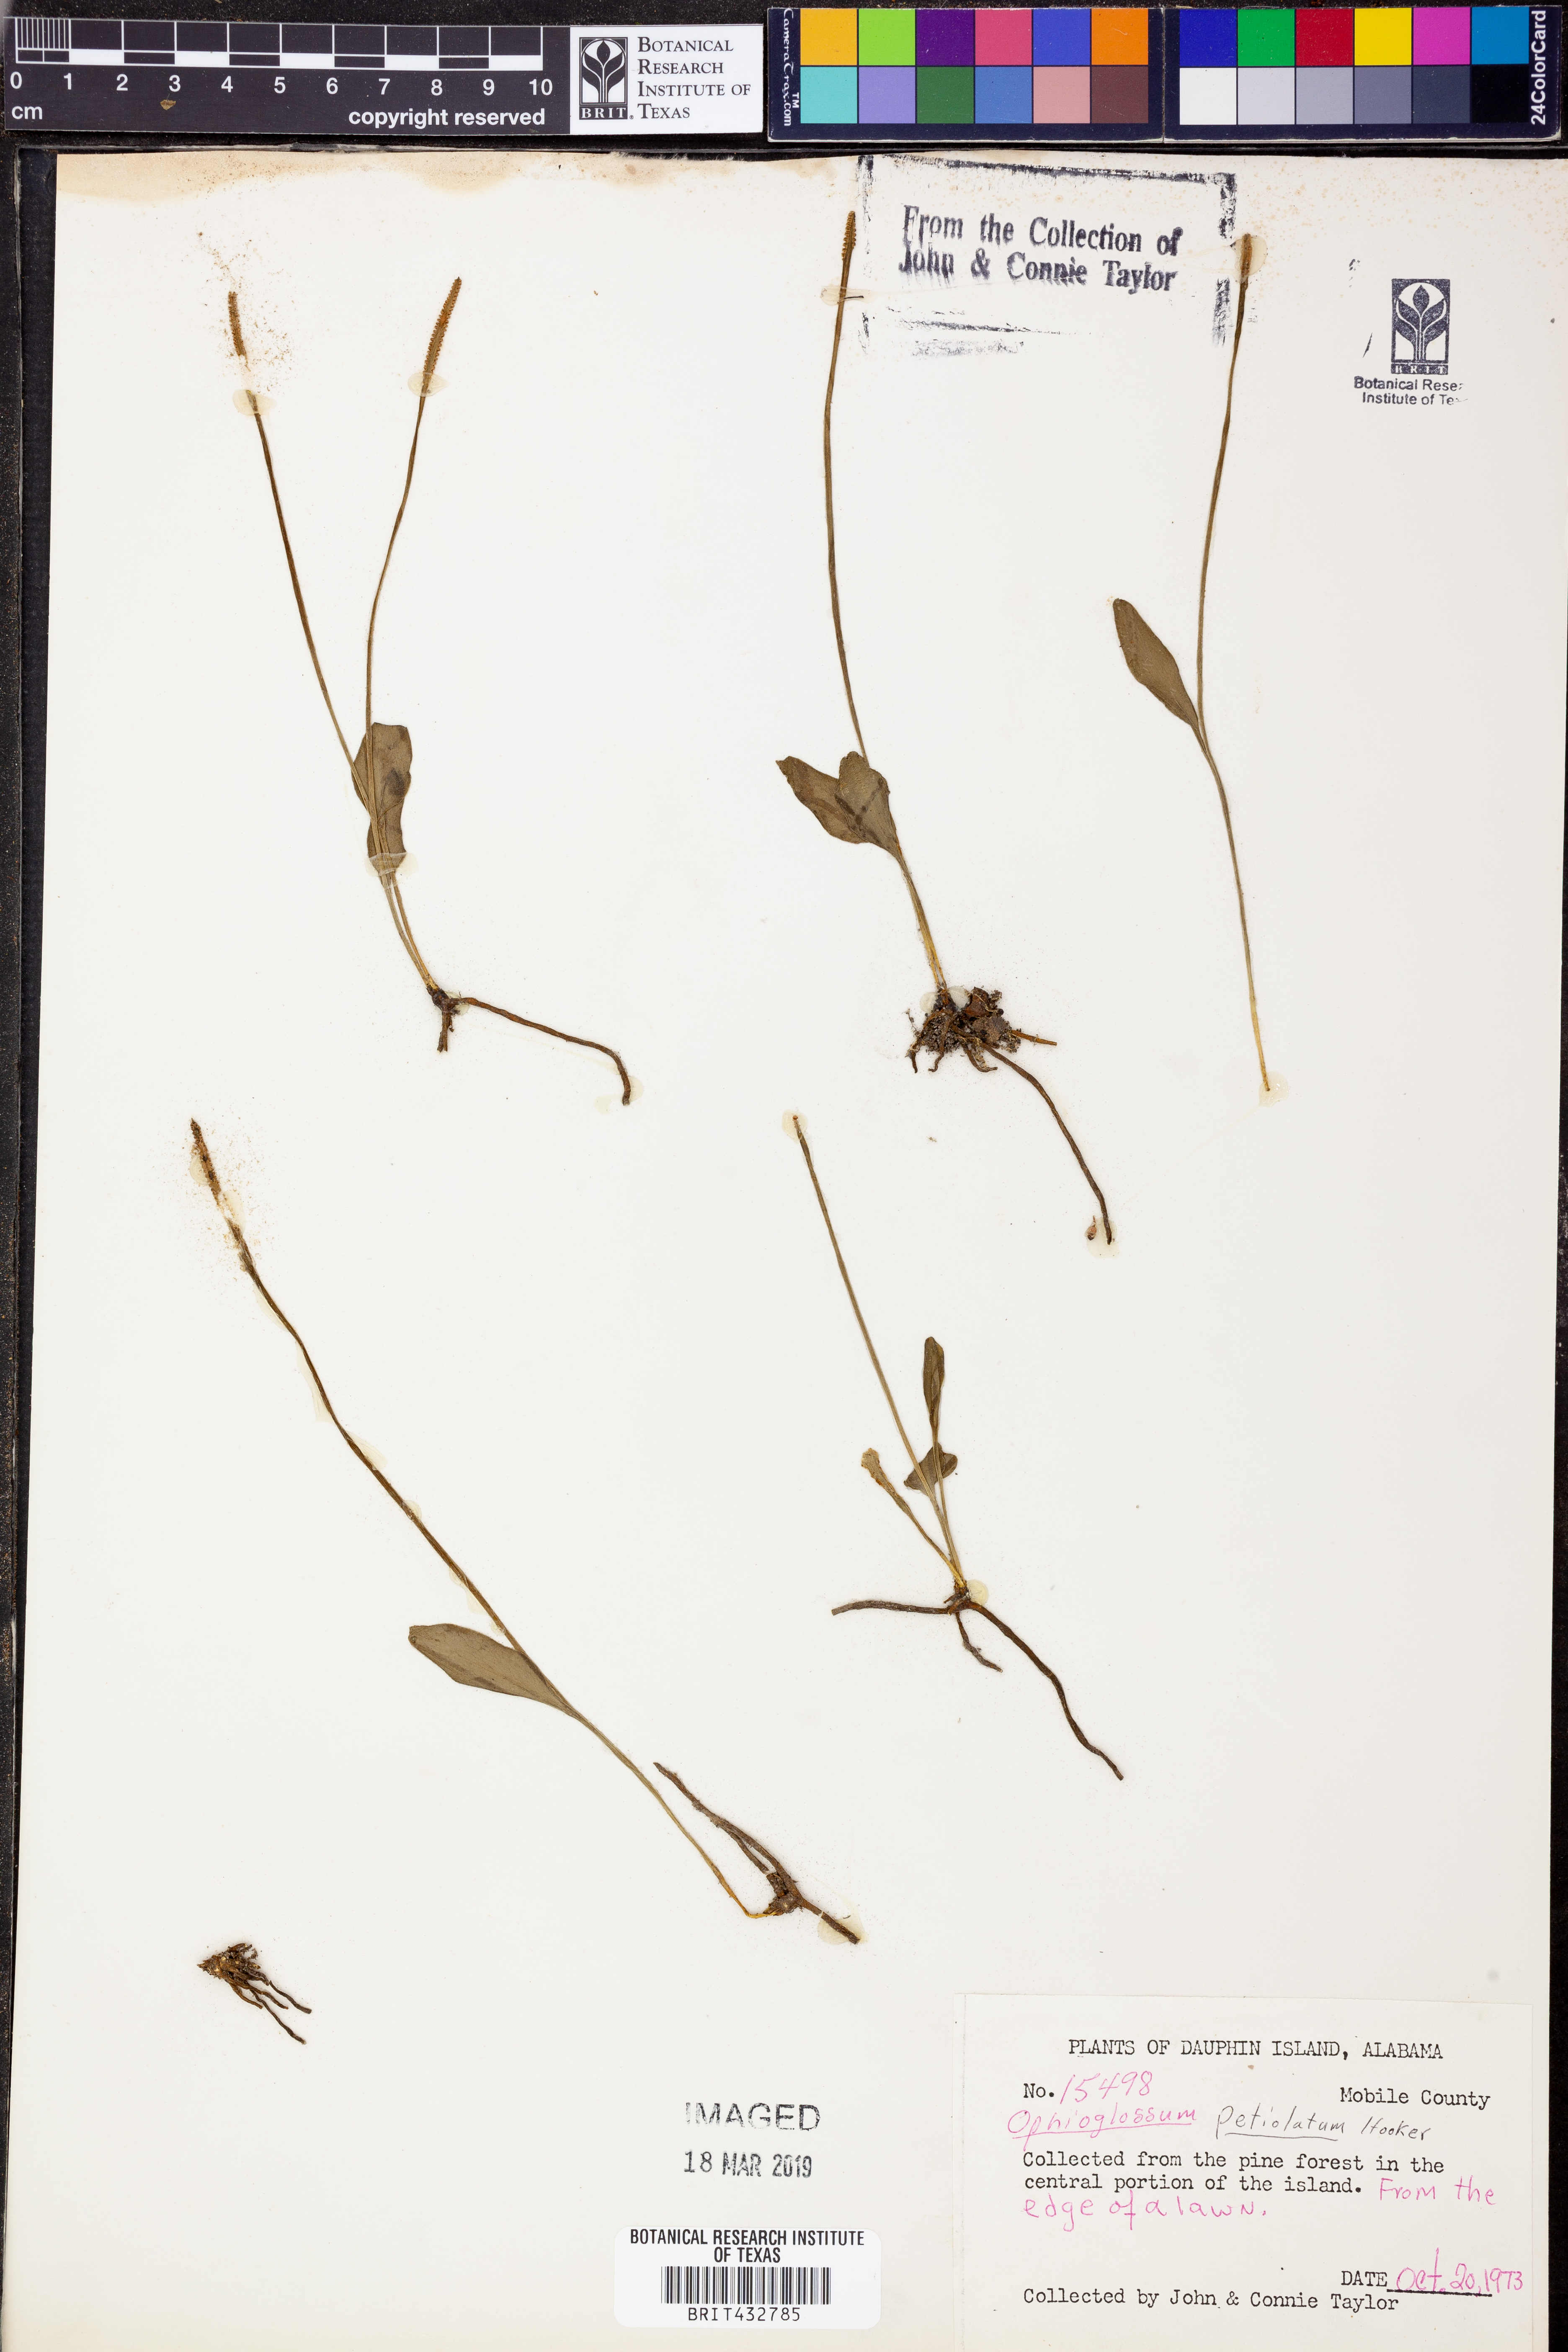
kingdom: Plantae
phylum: Tracheophyta
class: Polypodiopsida
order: Ophioglossales
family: Ophioglossaceae
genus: Ophioglossum
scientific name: Ophioglossum petiolatum
